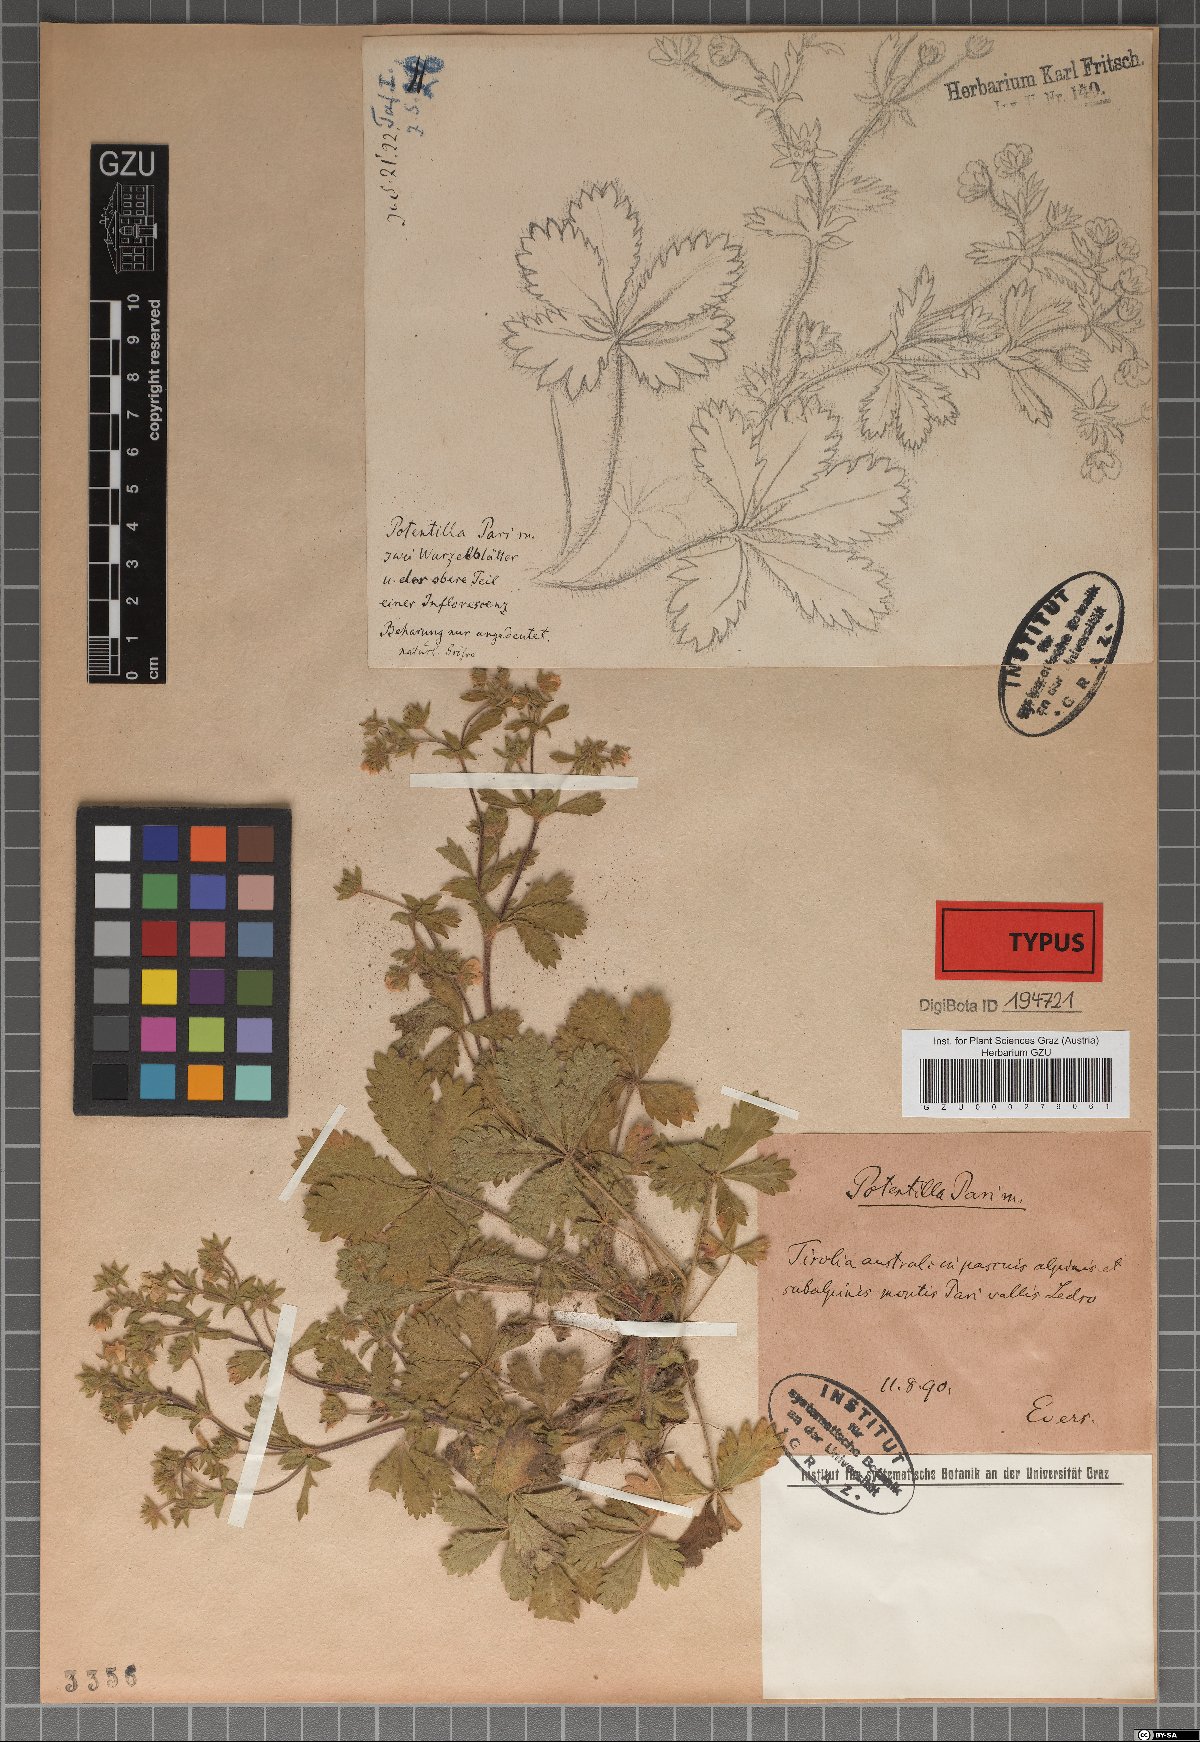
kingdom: Plantae
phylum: Tracheophyta
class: Magnoliopsida
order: Rosales
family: Rosaceae
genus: Potentilla
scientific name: Potentilla pusilla
